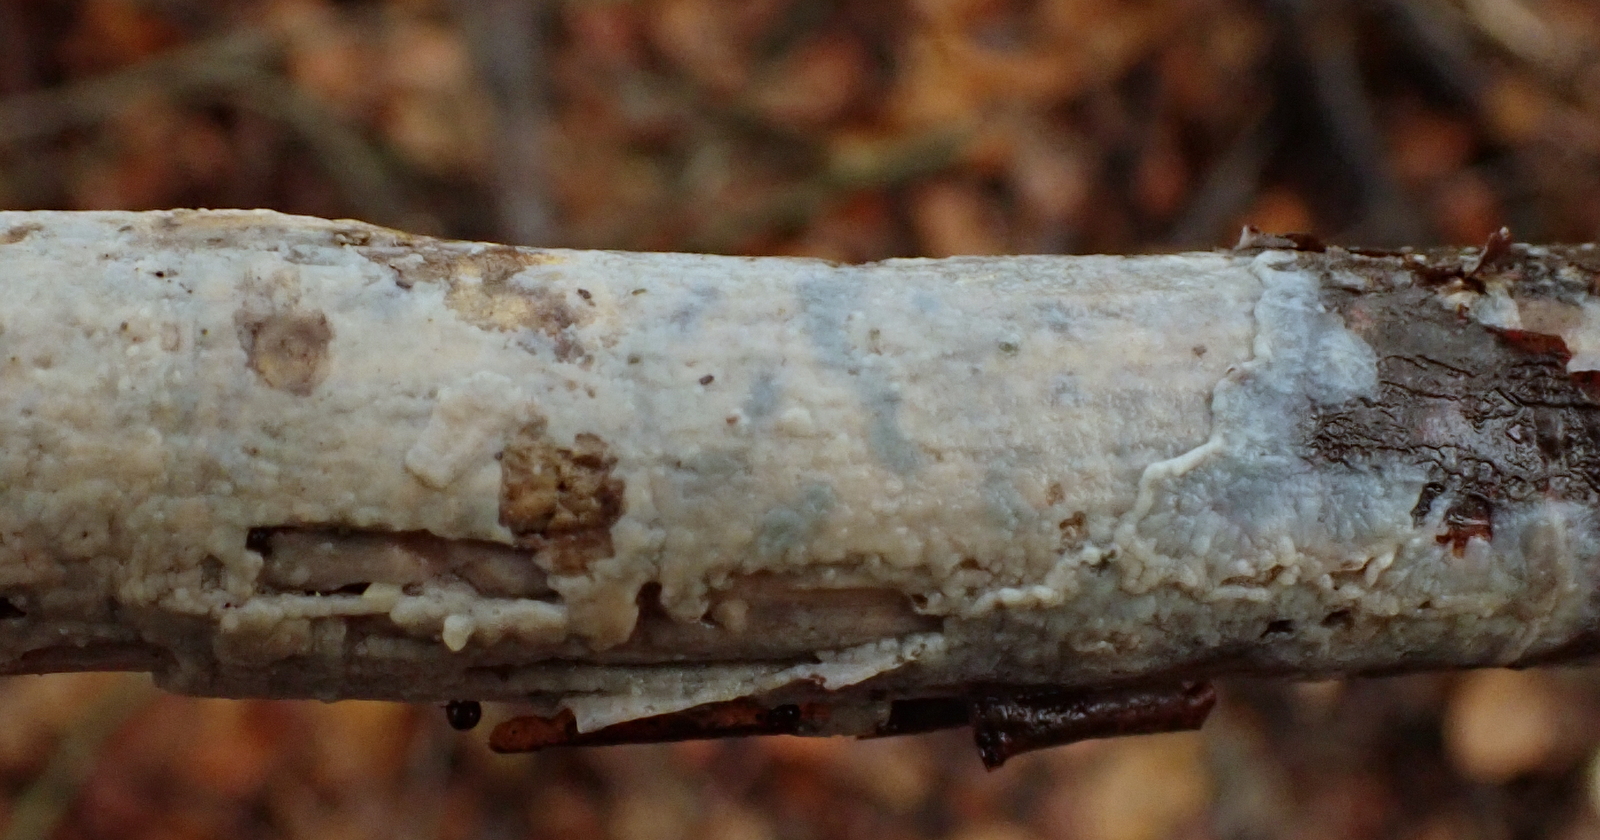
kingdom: Fungi
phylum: Basidiomycota
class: Agaricomycetes
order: Agaricales
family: Radulomycetaceae
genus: Radulomyces
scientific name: Radulomyces confluens
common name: glat naftalinskind
